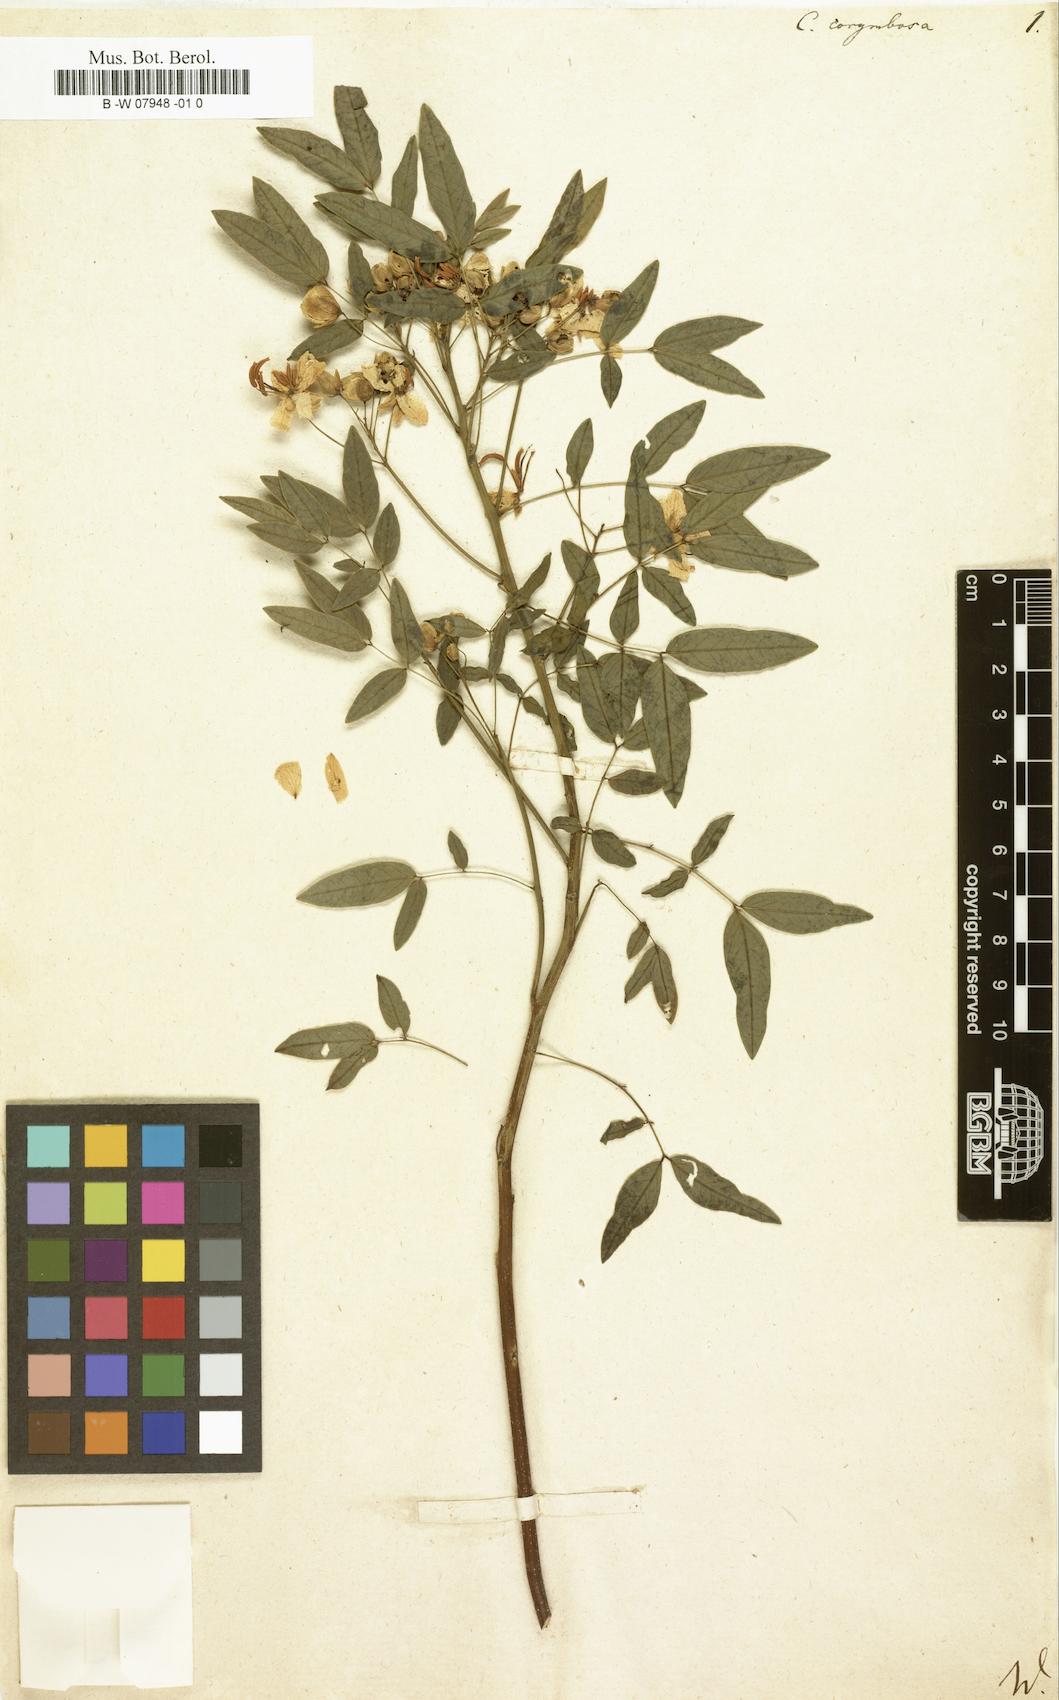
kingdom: Plantae
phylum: Tracheophyta
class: Magnoliopsida
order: Fabales
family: Fabaceae
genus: Senna
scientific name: Senna
